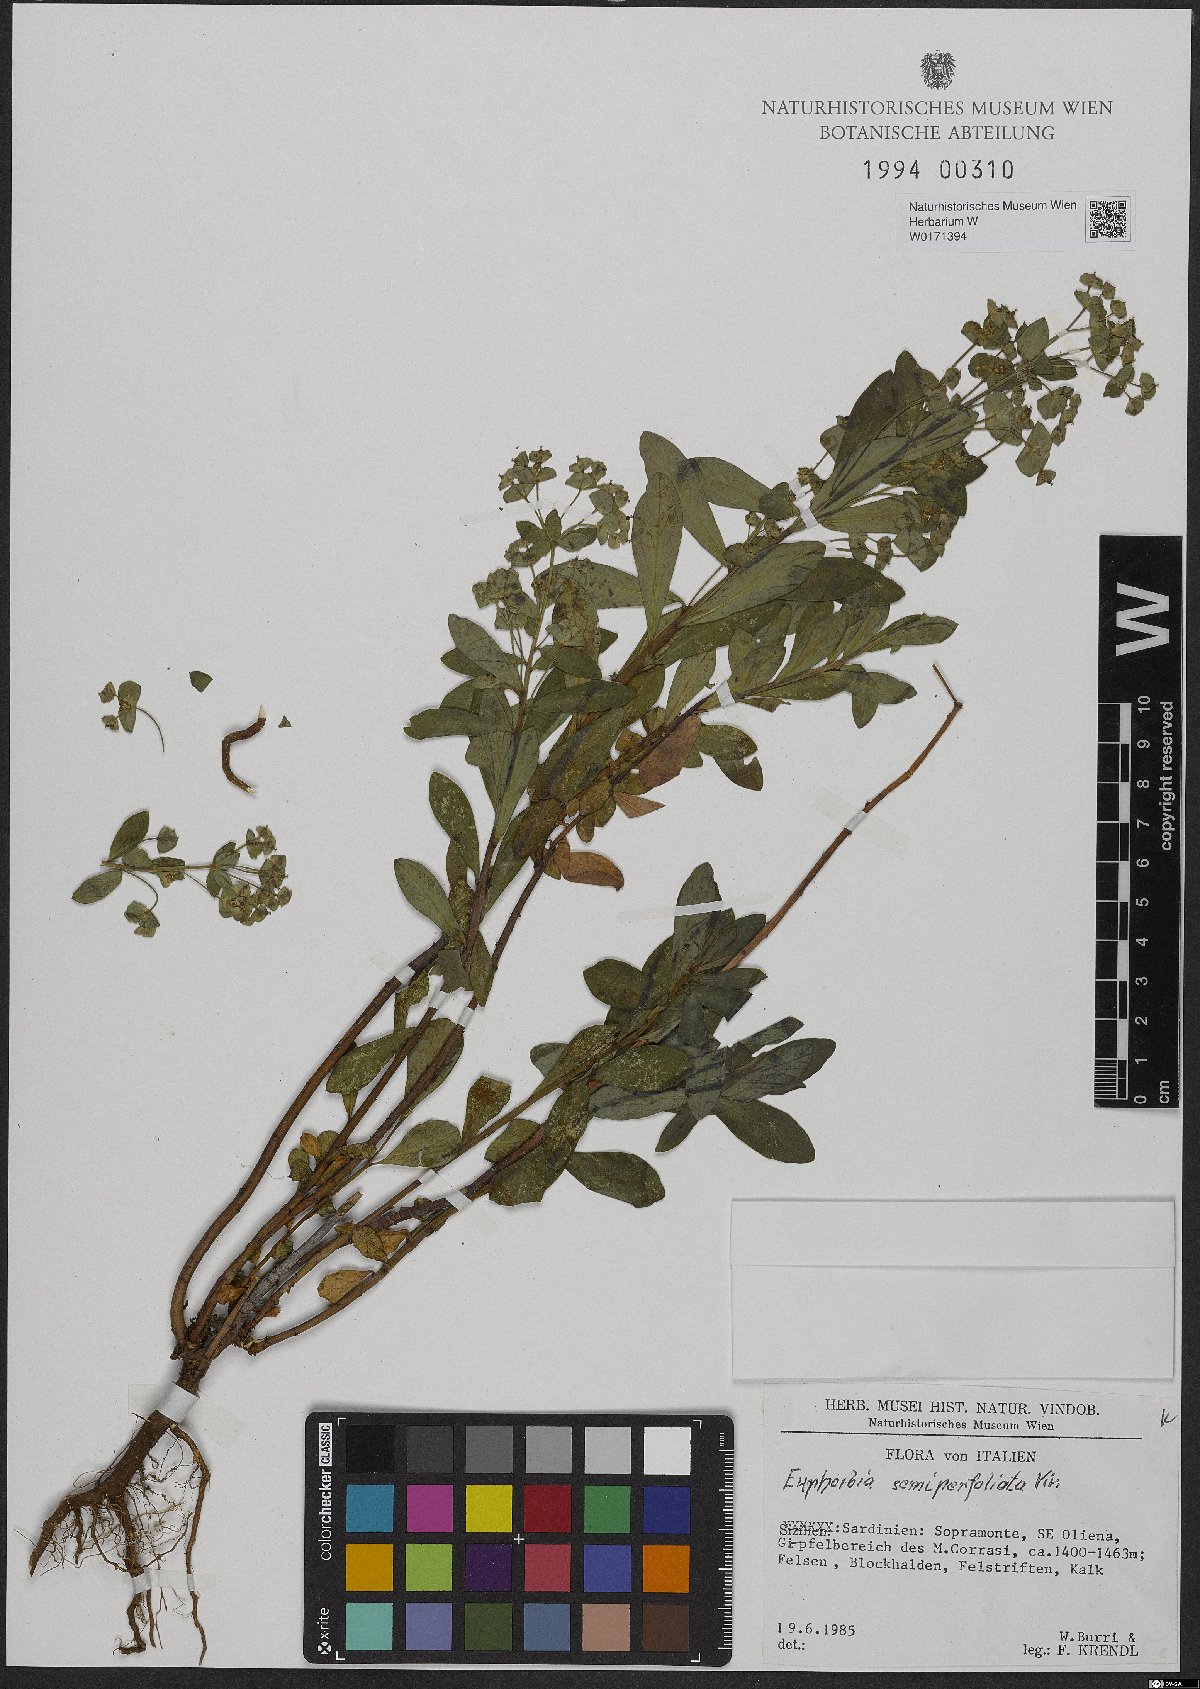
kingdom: Plantae
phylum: Tracheophyta
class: Magnoliopsida
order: Malpighiales
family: Euphorbiaceae
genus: Euphorbia
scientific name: Euphorbia semiperfoliata
